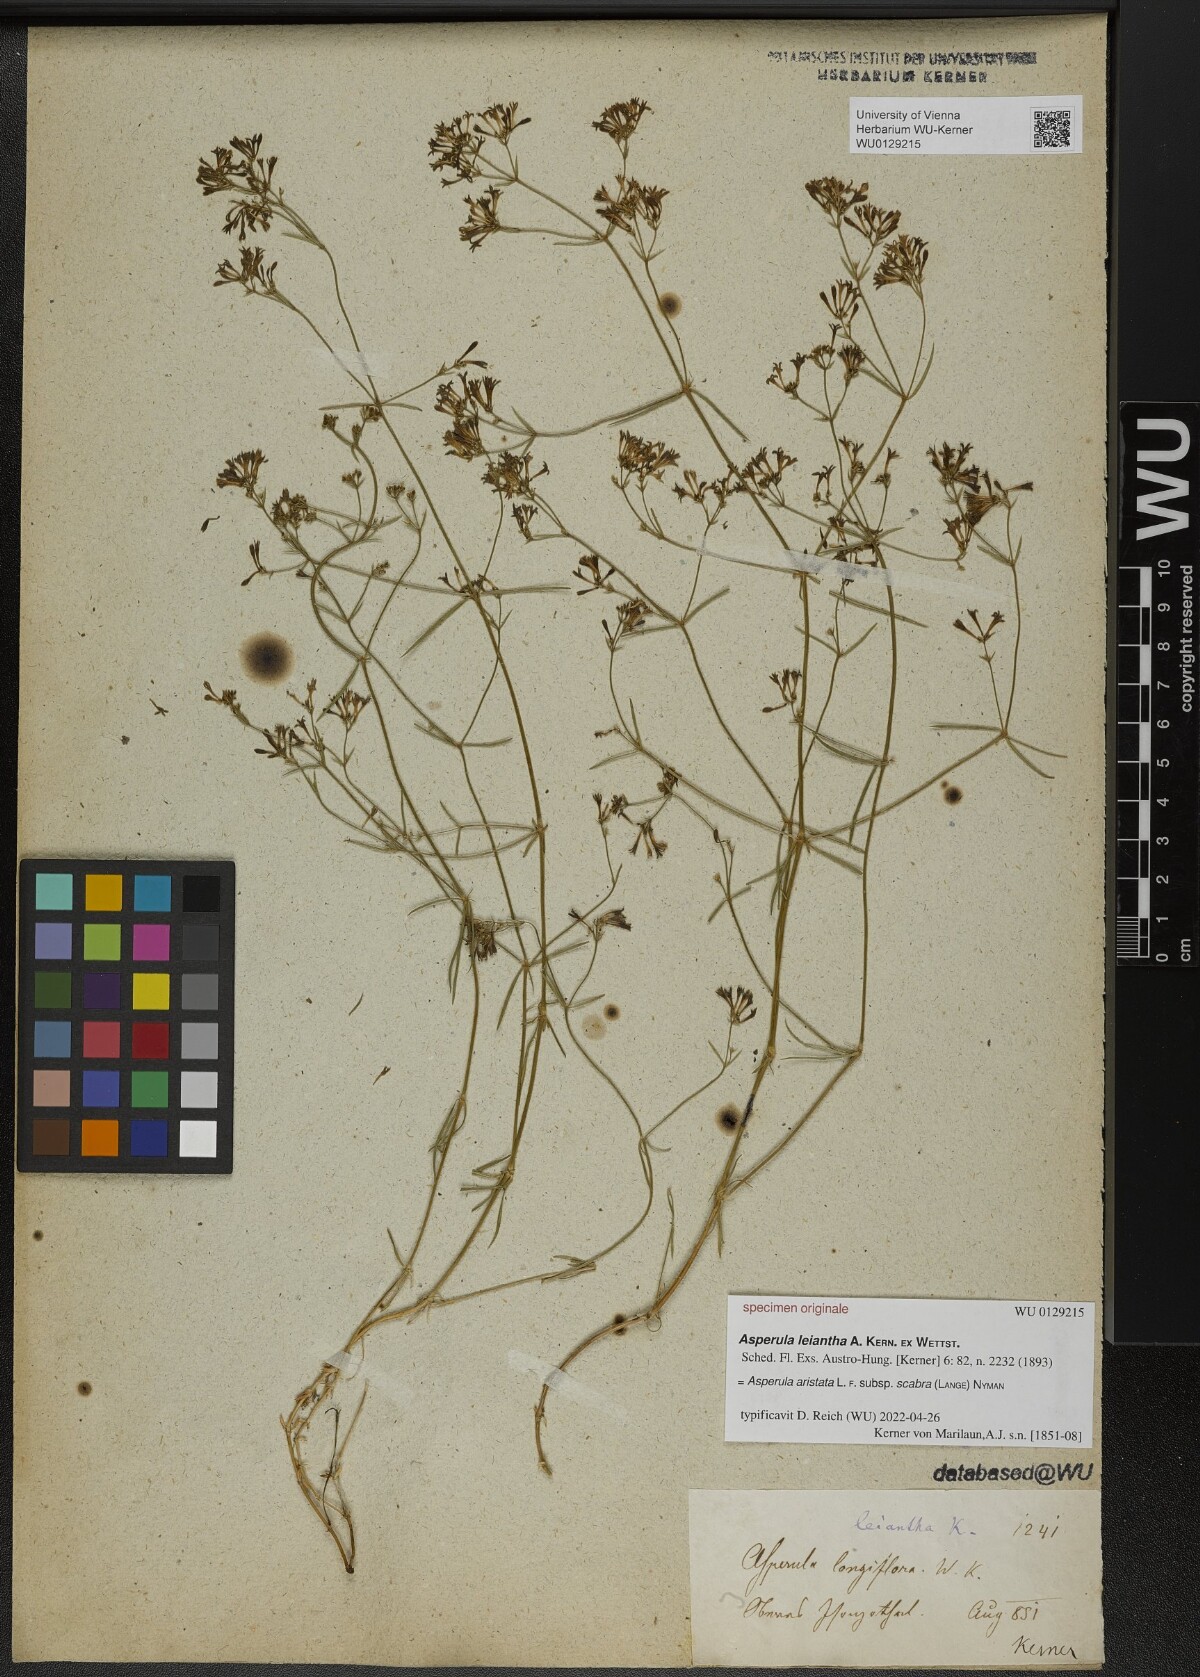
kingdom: Plantae
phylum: Tracheophyta
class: Magnoliopsida
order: Gentianales
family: Rubiaceae
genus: Asperula
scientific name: Asperula
